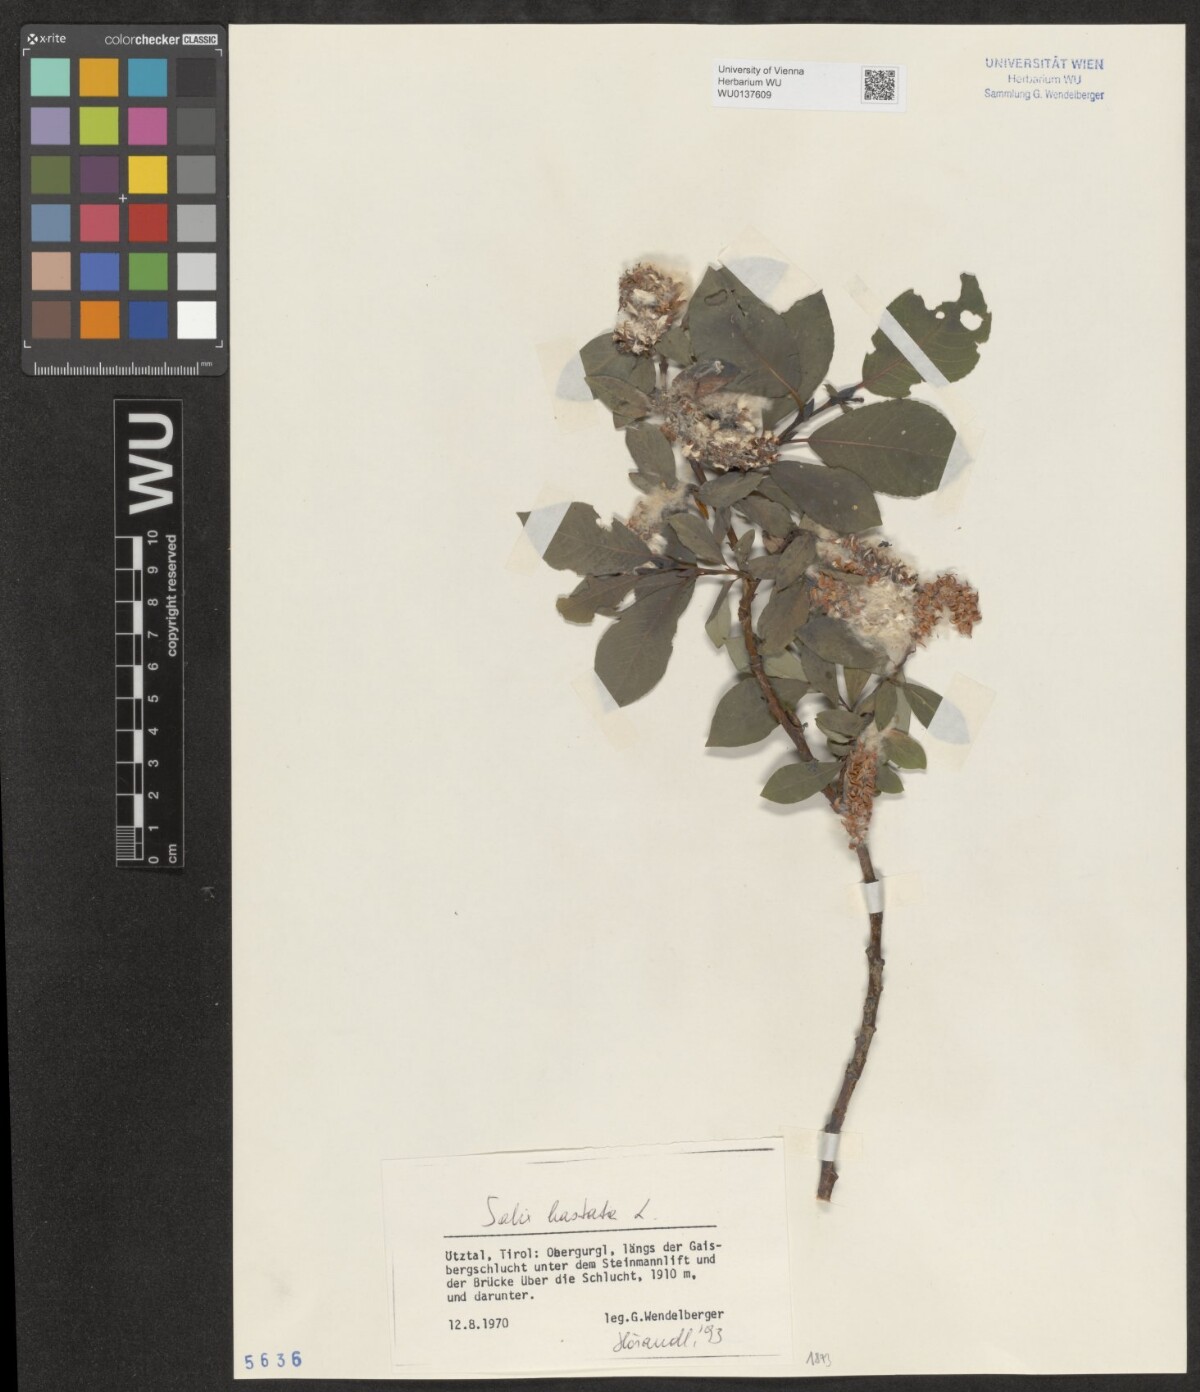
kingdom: Plantae
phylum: Tracheophyta
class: Magnoliopsida
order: Malpighiales
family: Salicaceae
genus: Salix
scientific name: Salix hastata
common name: Halberd willow
